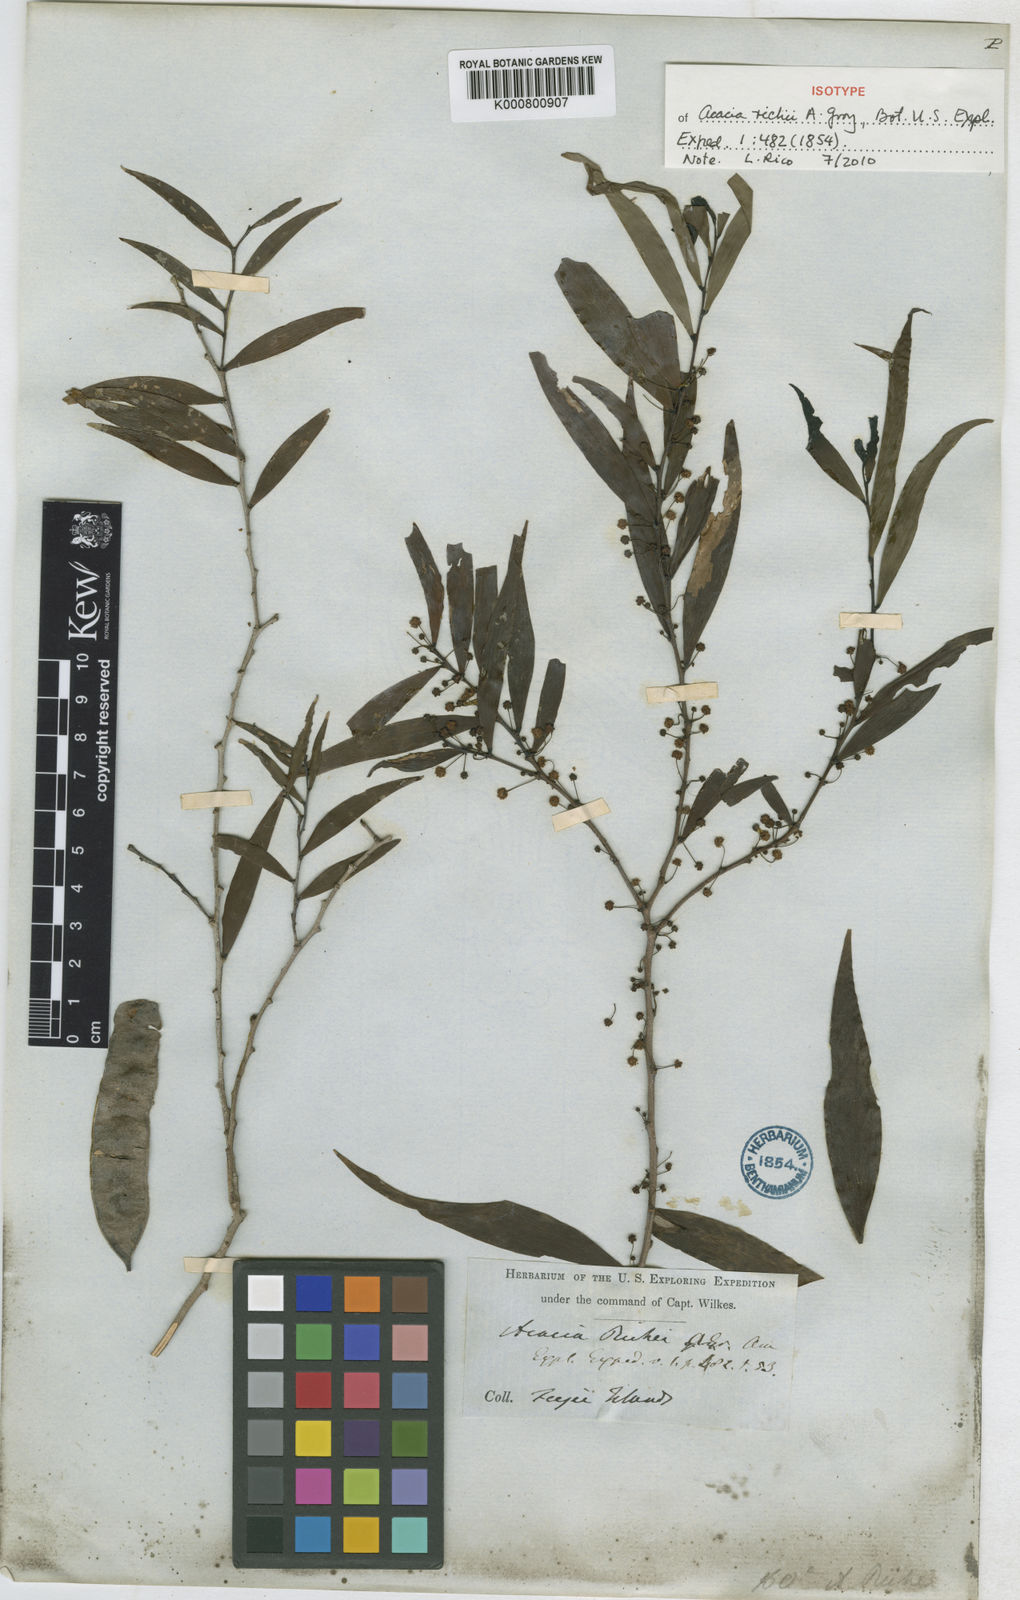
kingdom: Plantae
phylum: Tracheophyta
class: Magnoliopsida
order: Fabales
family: Fabaceae
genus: Acacia
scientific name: Acacia richii
